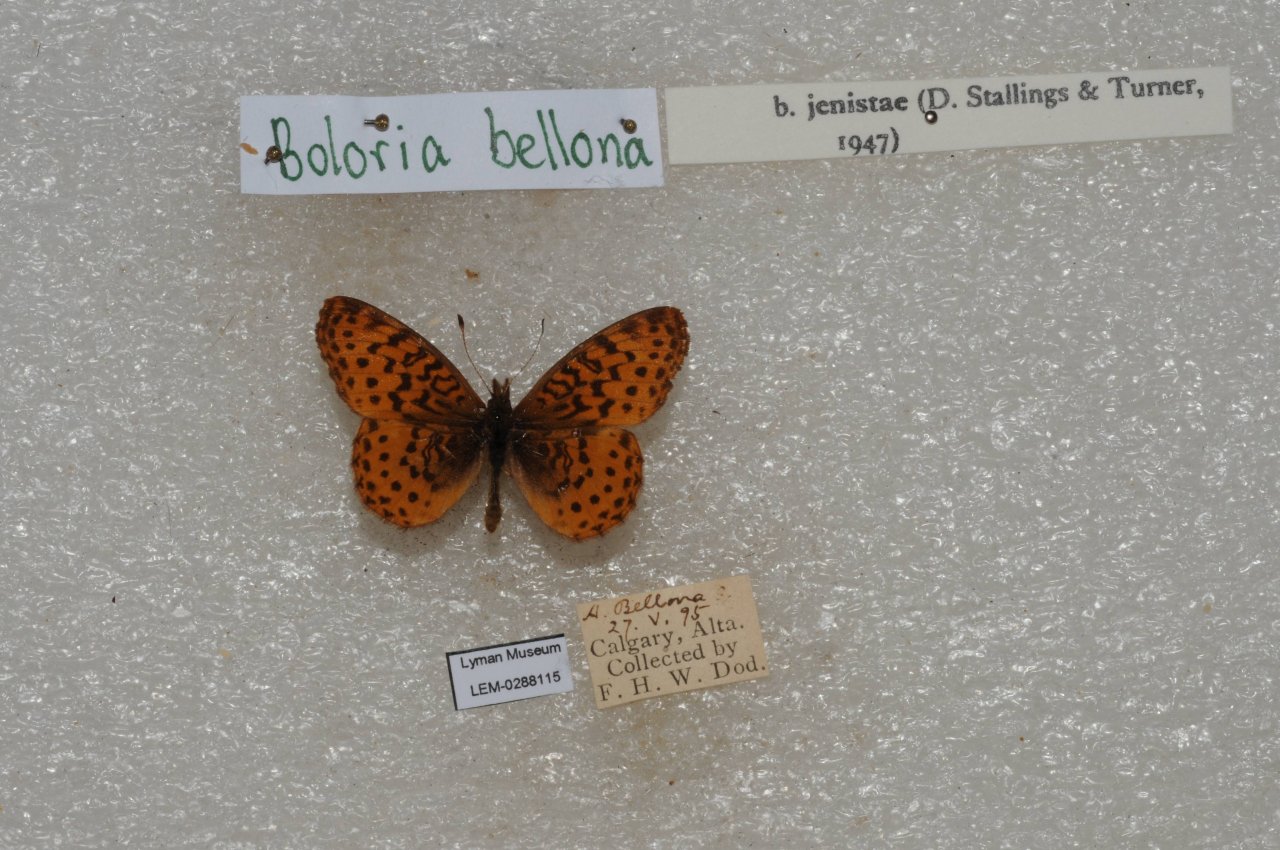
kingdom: Animalia
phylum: Arthropoda
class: Insecta
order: Lepidoptera
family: Nymphalidae
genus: Clossiana
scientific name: Clossiana toddi
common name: Meadow Fritillary
